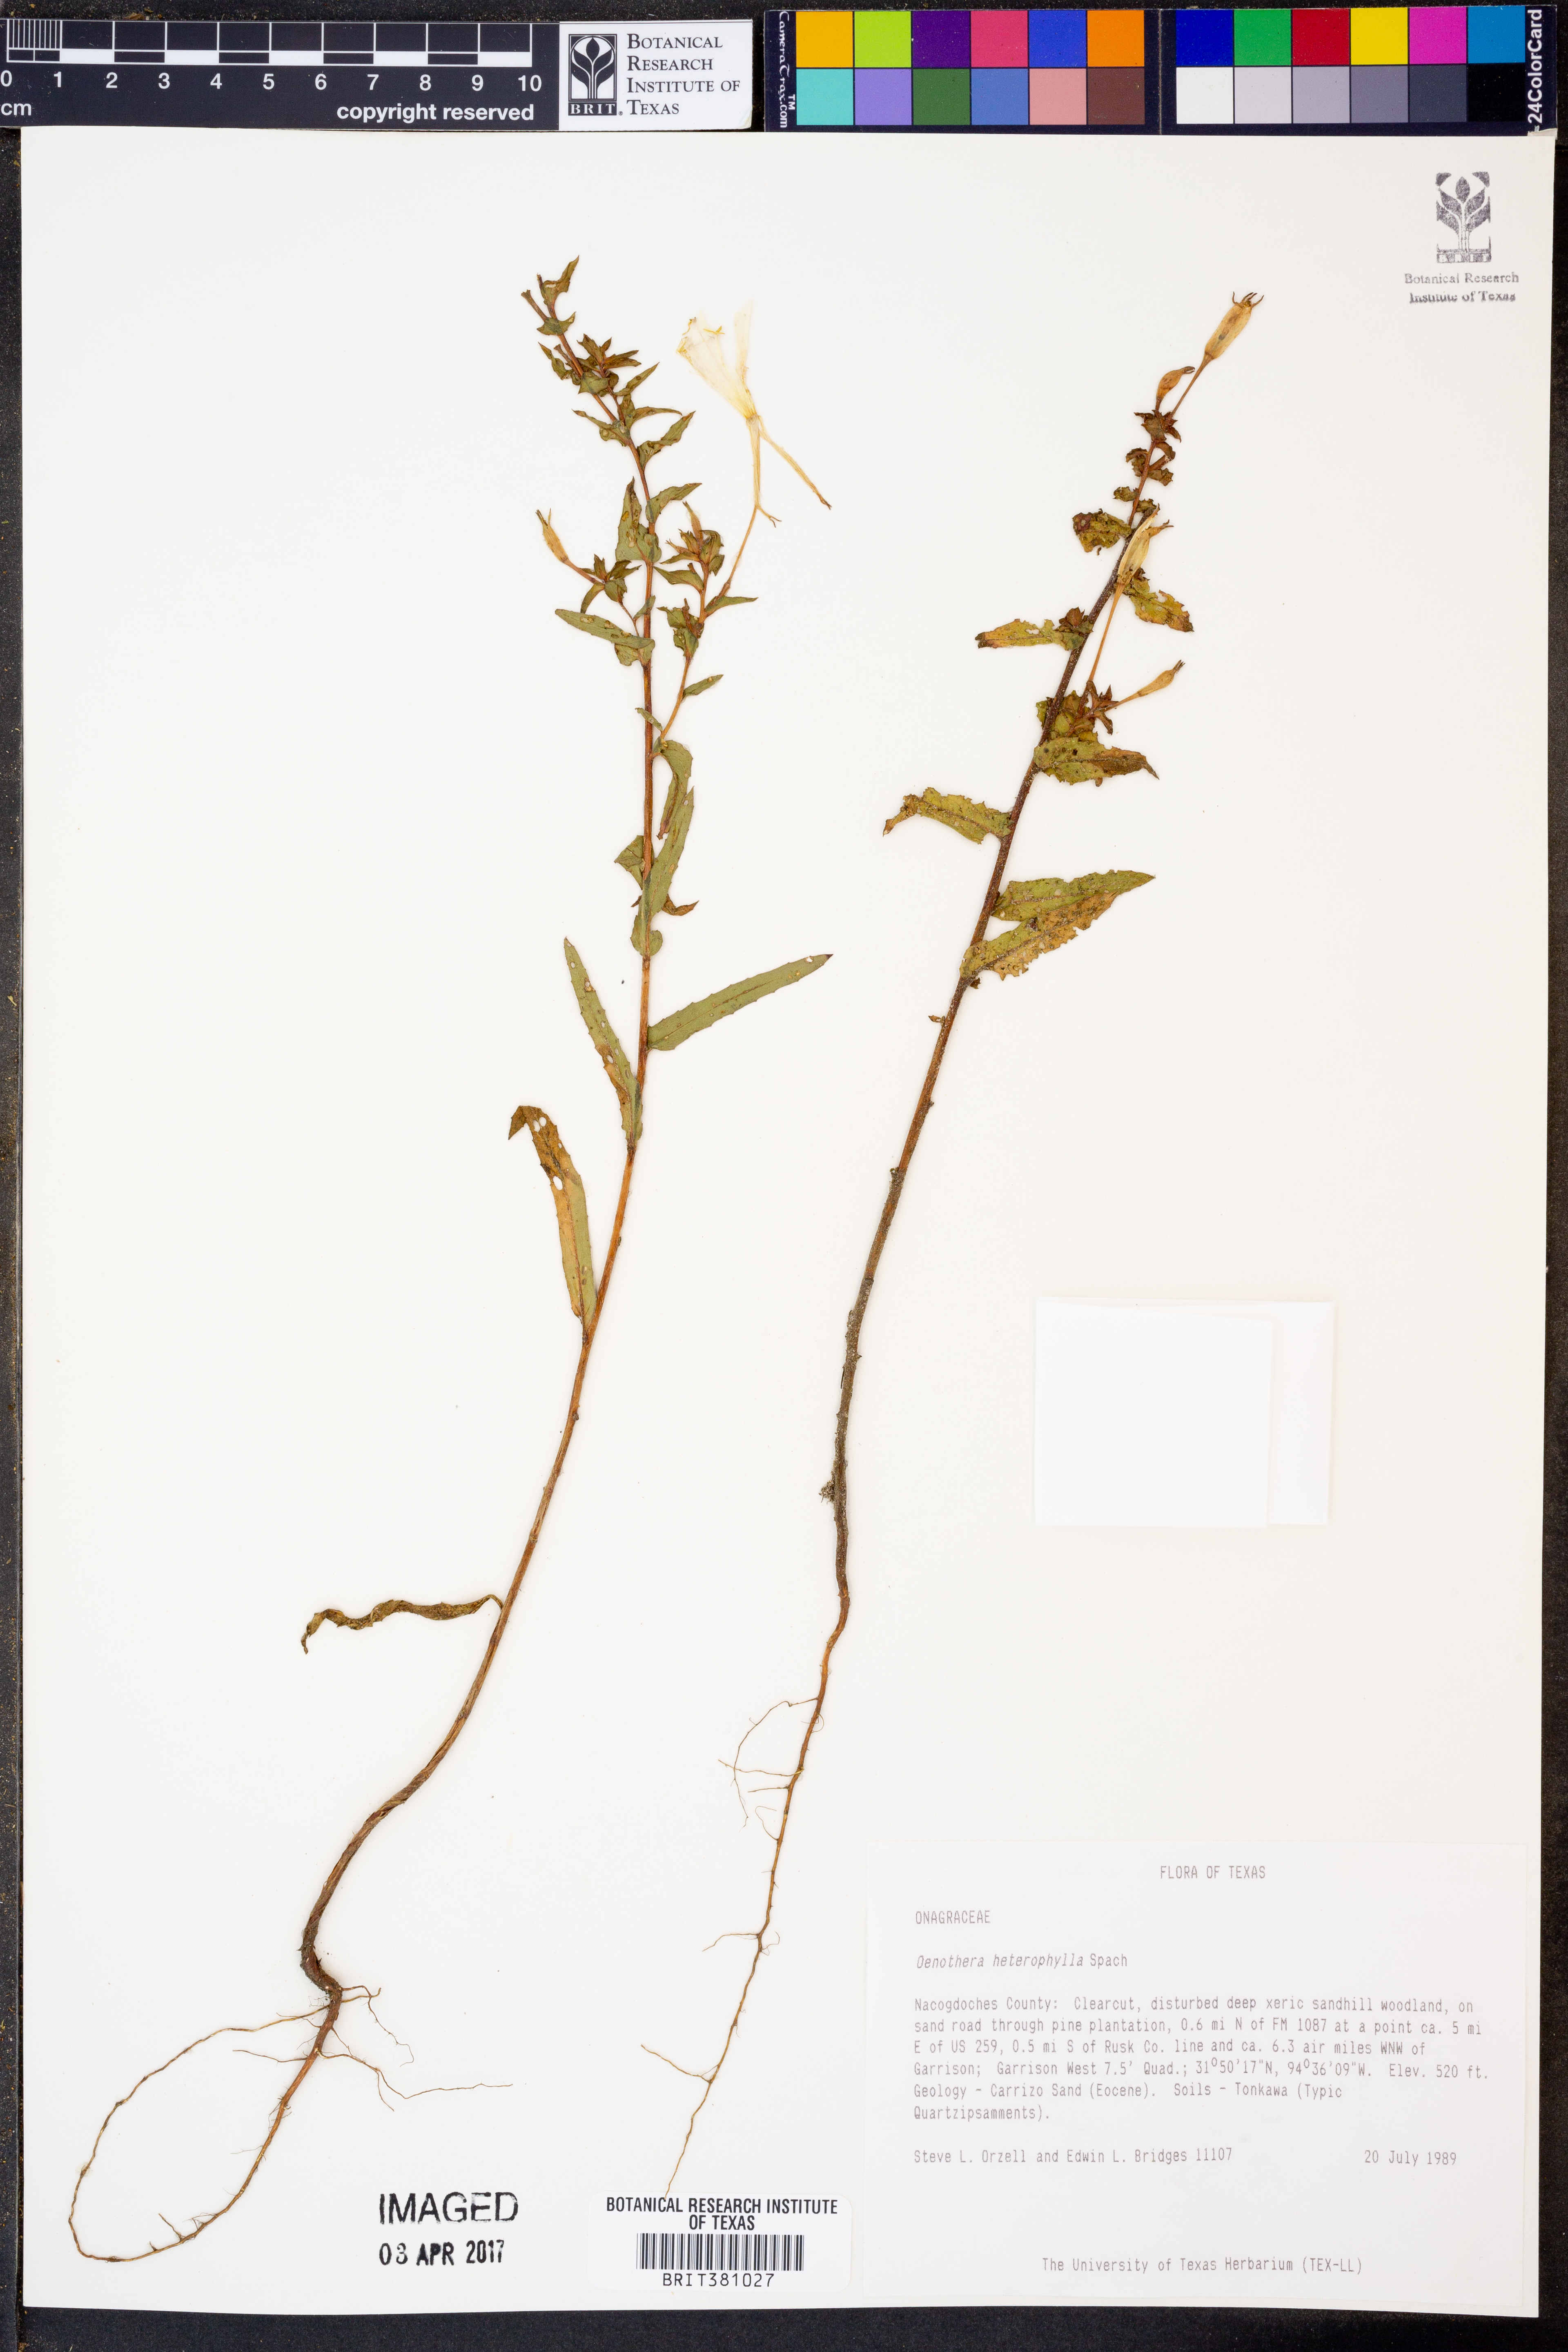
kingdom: Plantae
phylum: Tracheophyta
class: Magnoliopsida
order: Myrtales
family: Onagraceae
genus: Camissonia
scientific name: Camissonia dentata
